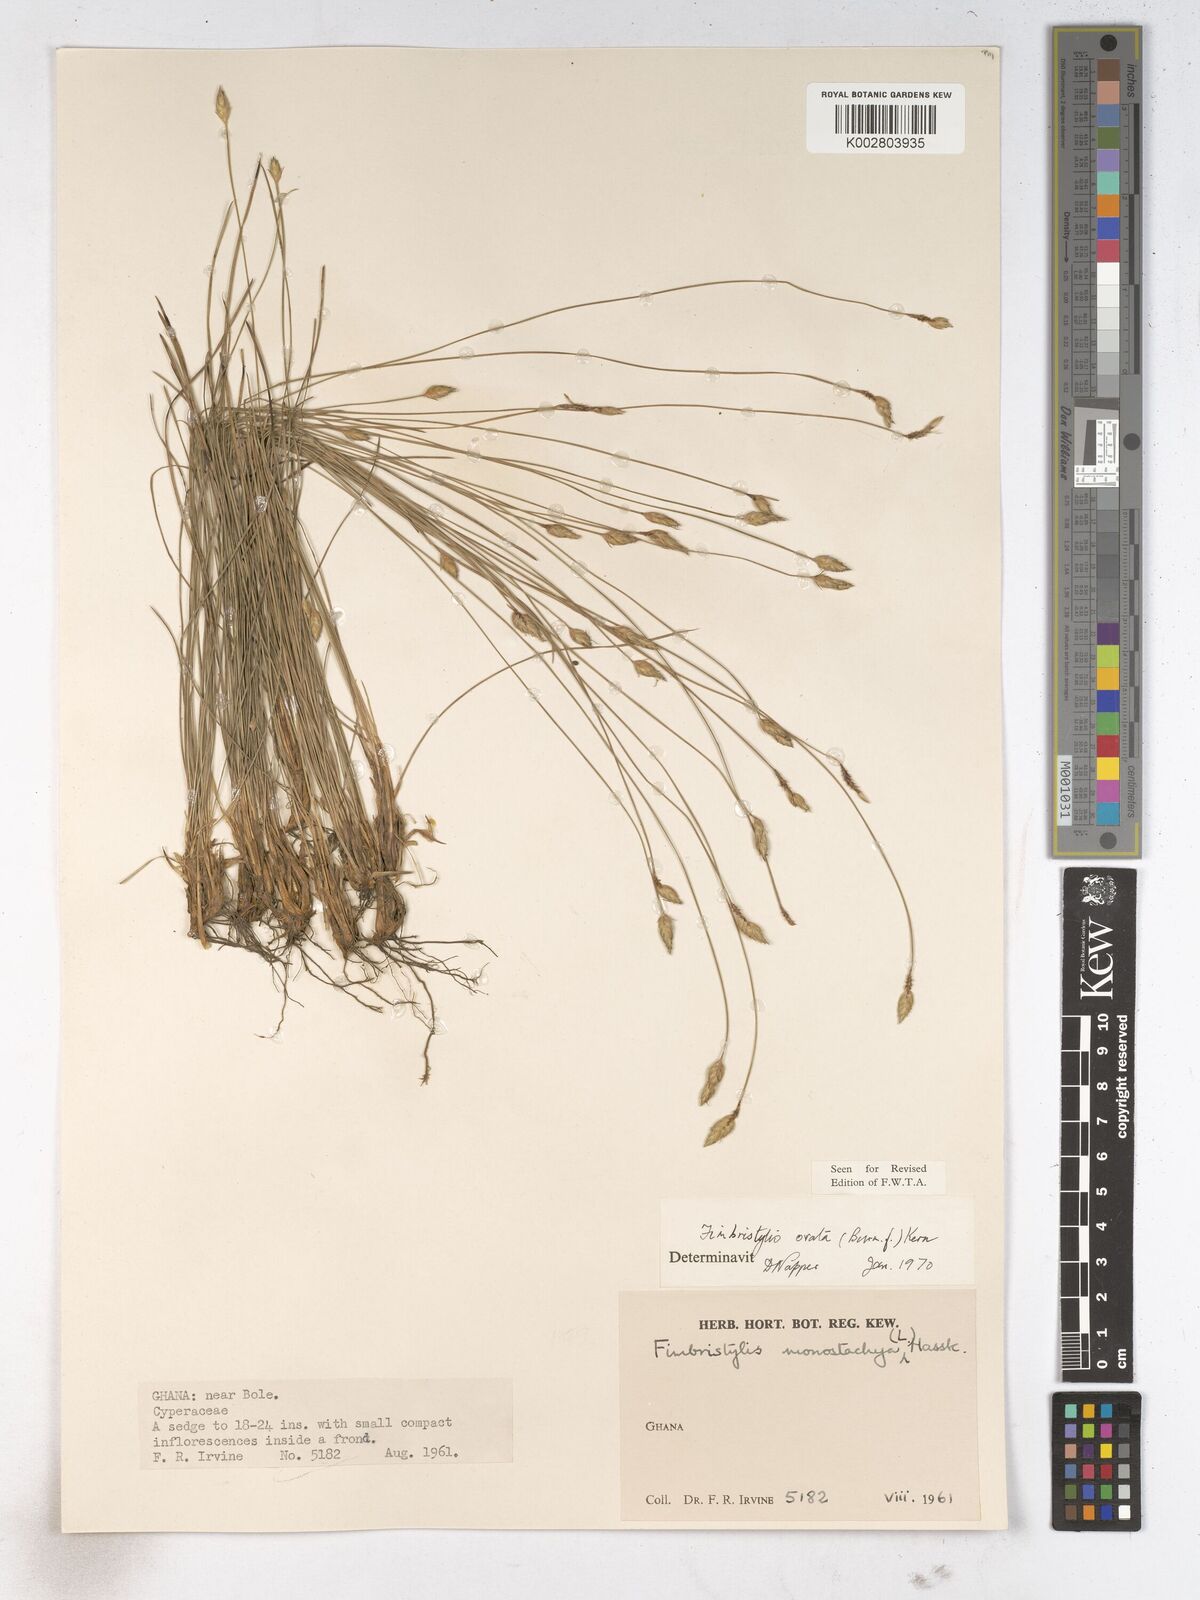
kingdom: Plantae
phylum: Tracheophyta
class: Liliopsida
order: Poales
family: Cyperaceae
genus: Abildgaardia
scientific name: Abildgaardia ovata
